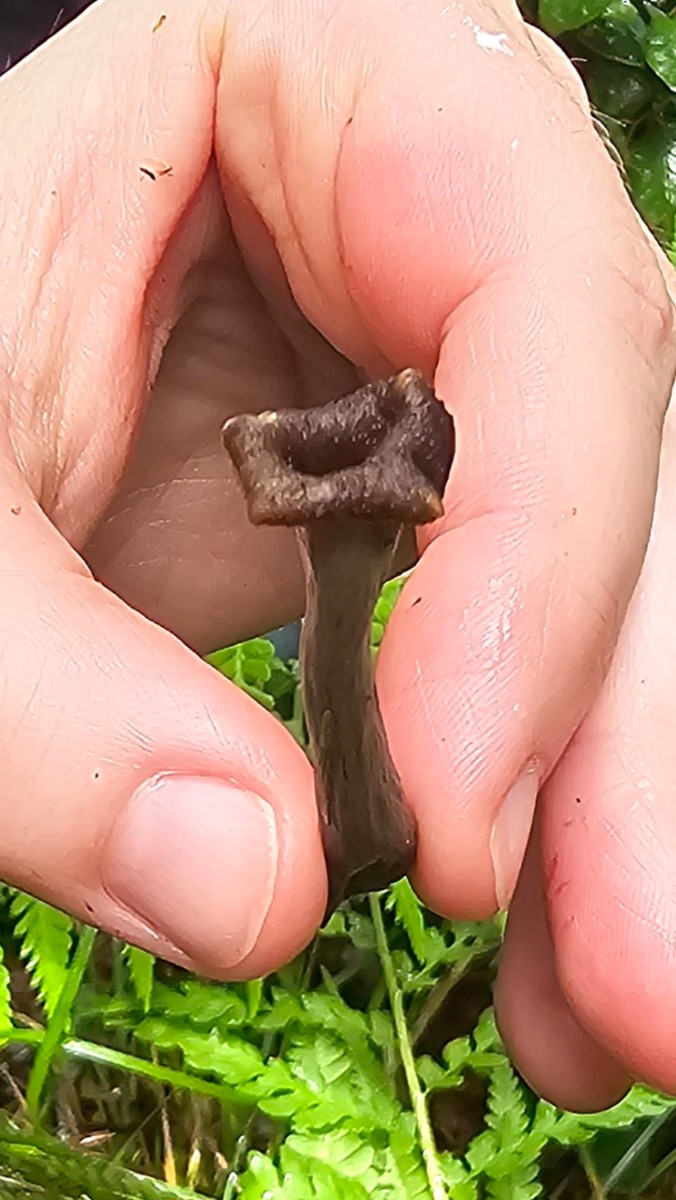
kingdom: Fungi
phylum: Basidiomycota
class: Agaricomycetes
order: Cantharellales
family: Hydnaceae
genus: Craterellus
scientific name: Craterellus cornucopioides
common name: trompetsvamp
